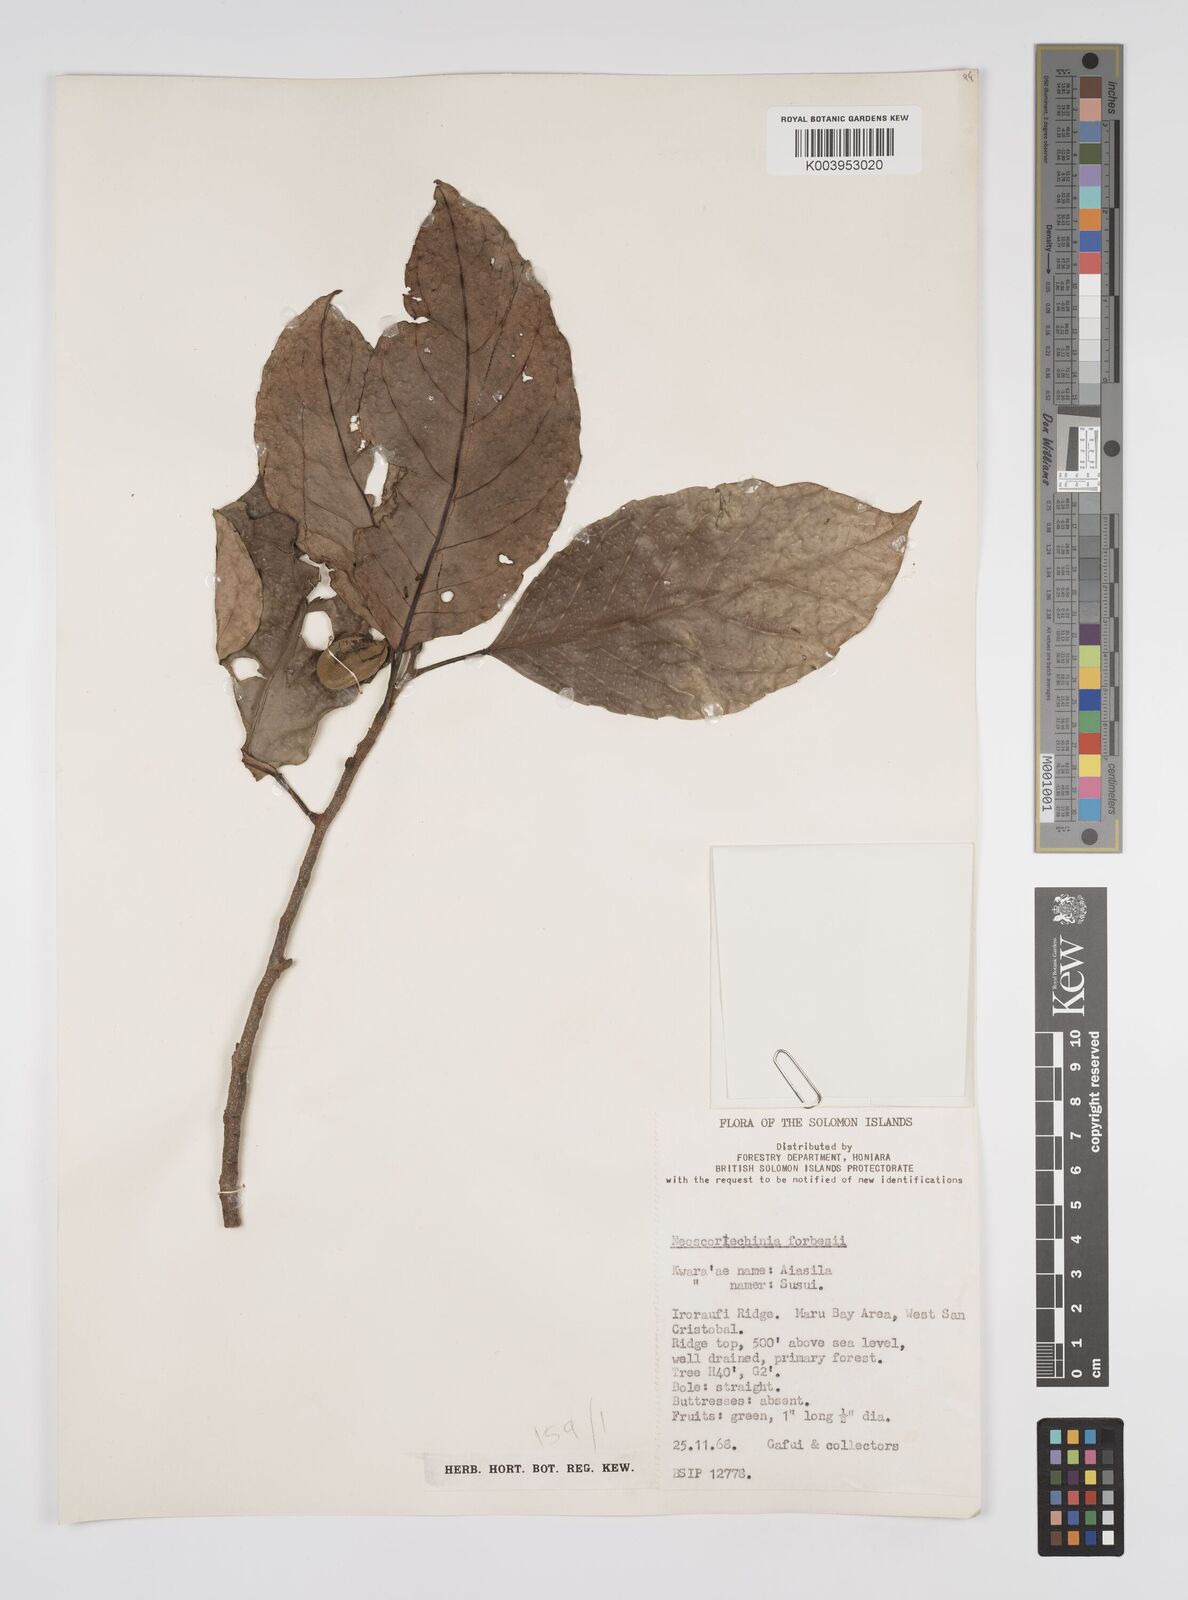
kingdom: Plantae
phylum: Tracheophyta
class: Magnoliopsida
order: Malpighiales
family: Euphorbiaceae
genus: Neoscortechinia
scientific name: Neoscortechinia forbesii
